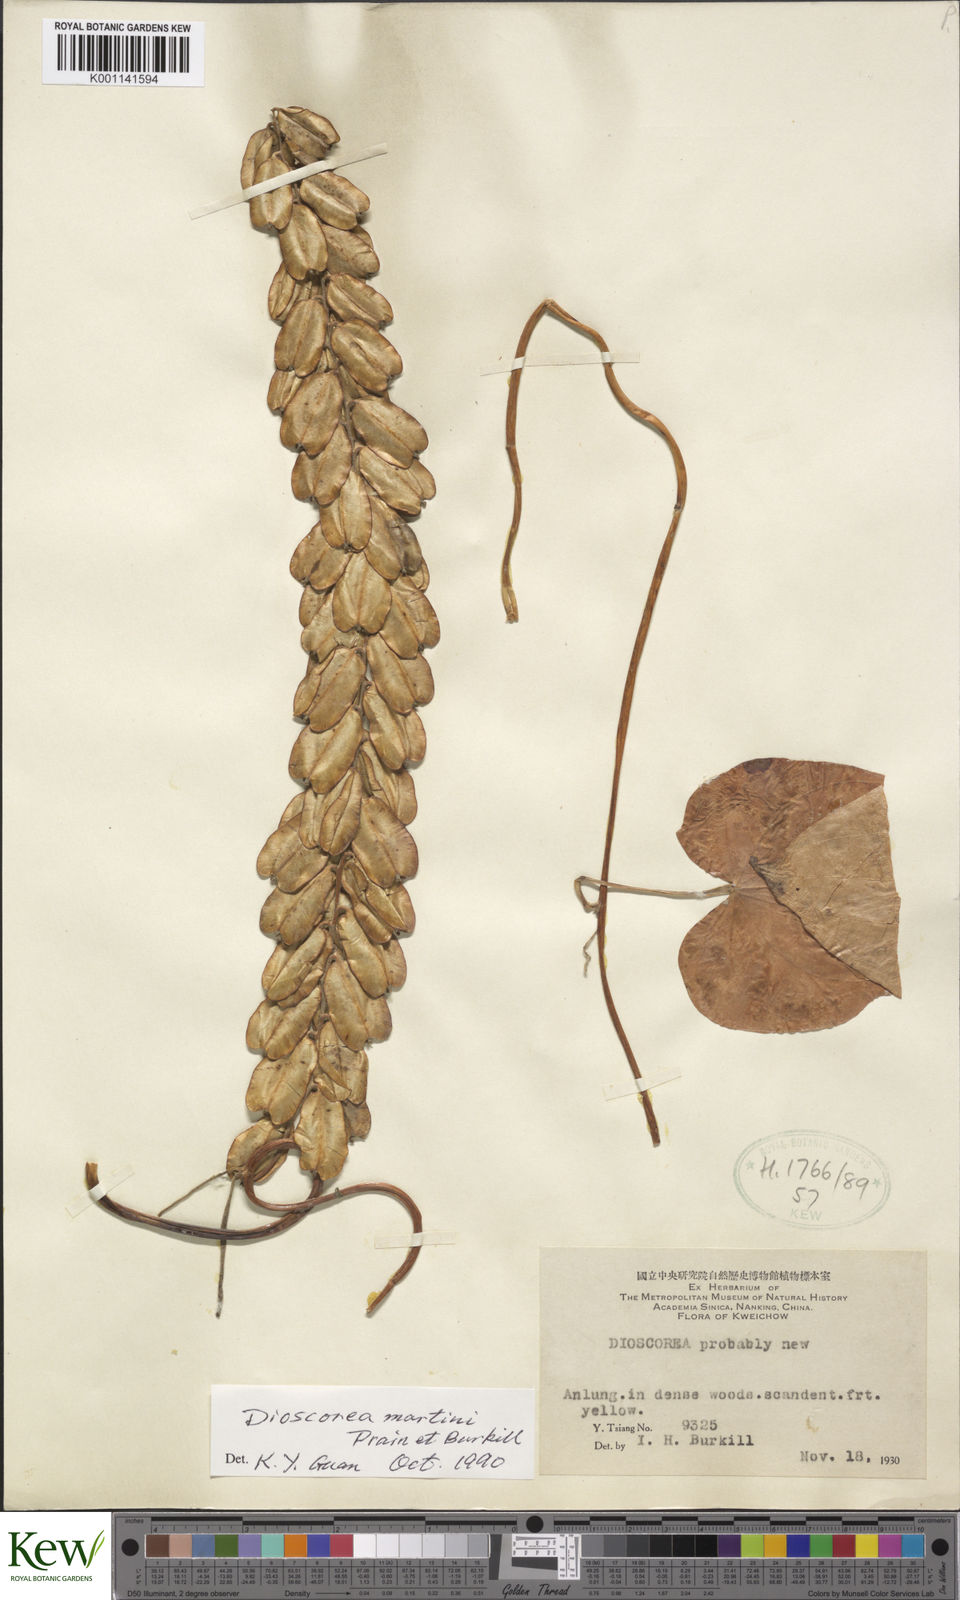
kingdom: Plantae
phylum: Tracheophyta
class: Liliopsida
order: Dioscoreales
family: Dioscoreaceae
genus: Dioscorea
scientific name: Dioscorea martini
